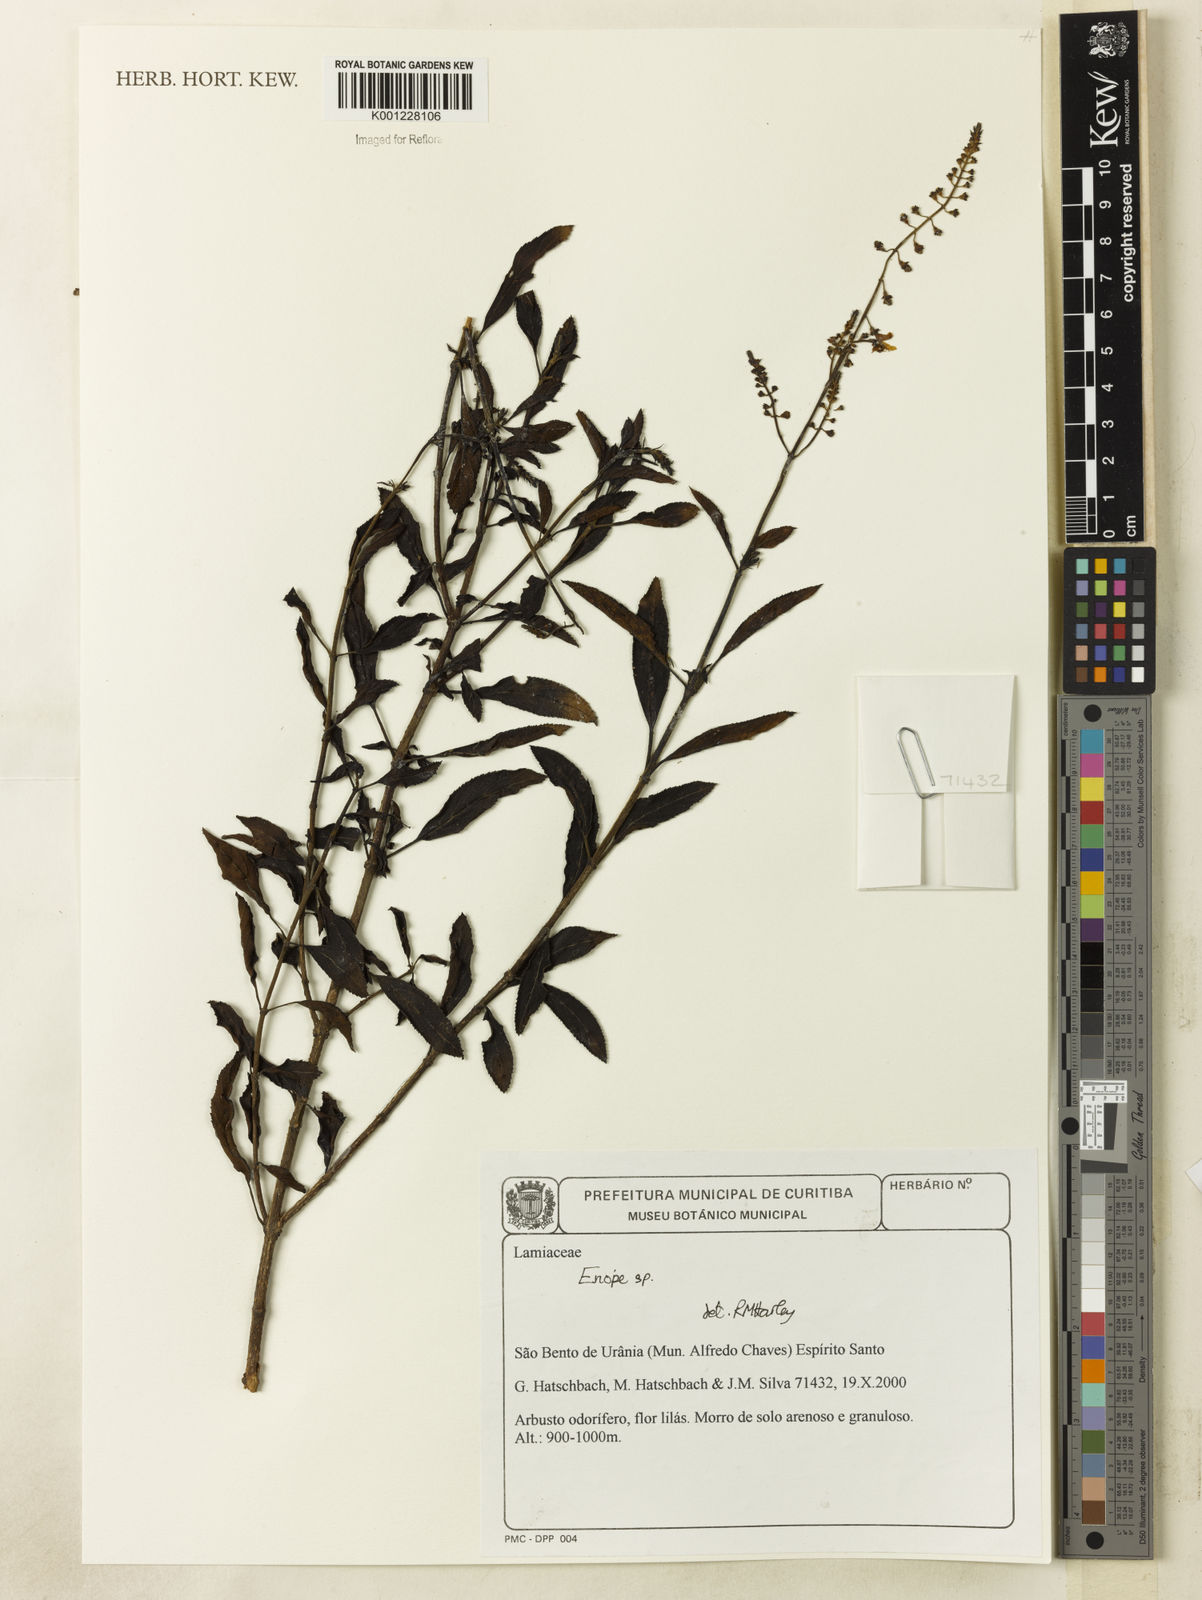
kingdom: Plantae
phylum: Tracheophyta
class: Magnoliopsida
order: Lamiales
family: Lamiaceae
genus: Eriope
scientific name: Eriope
